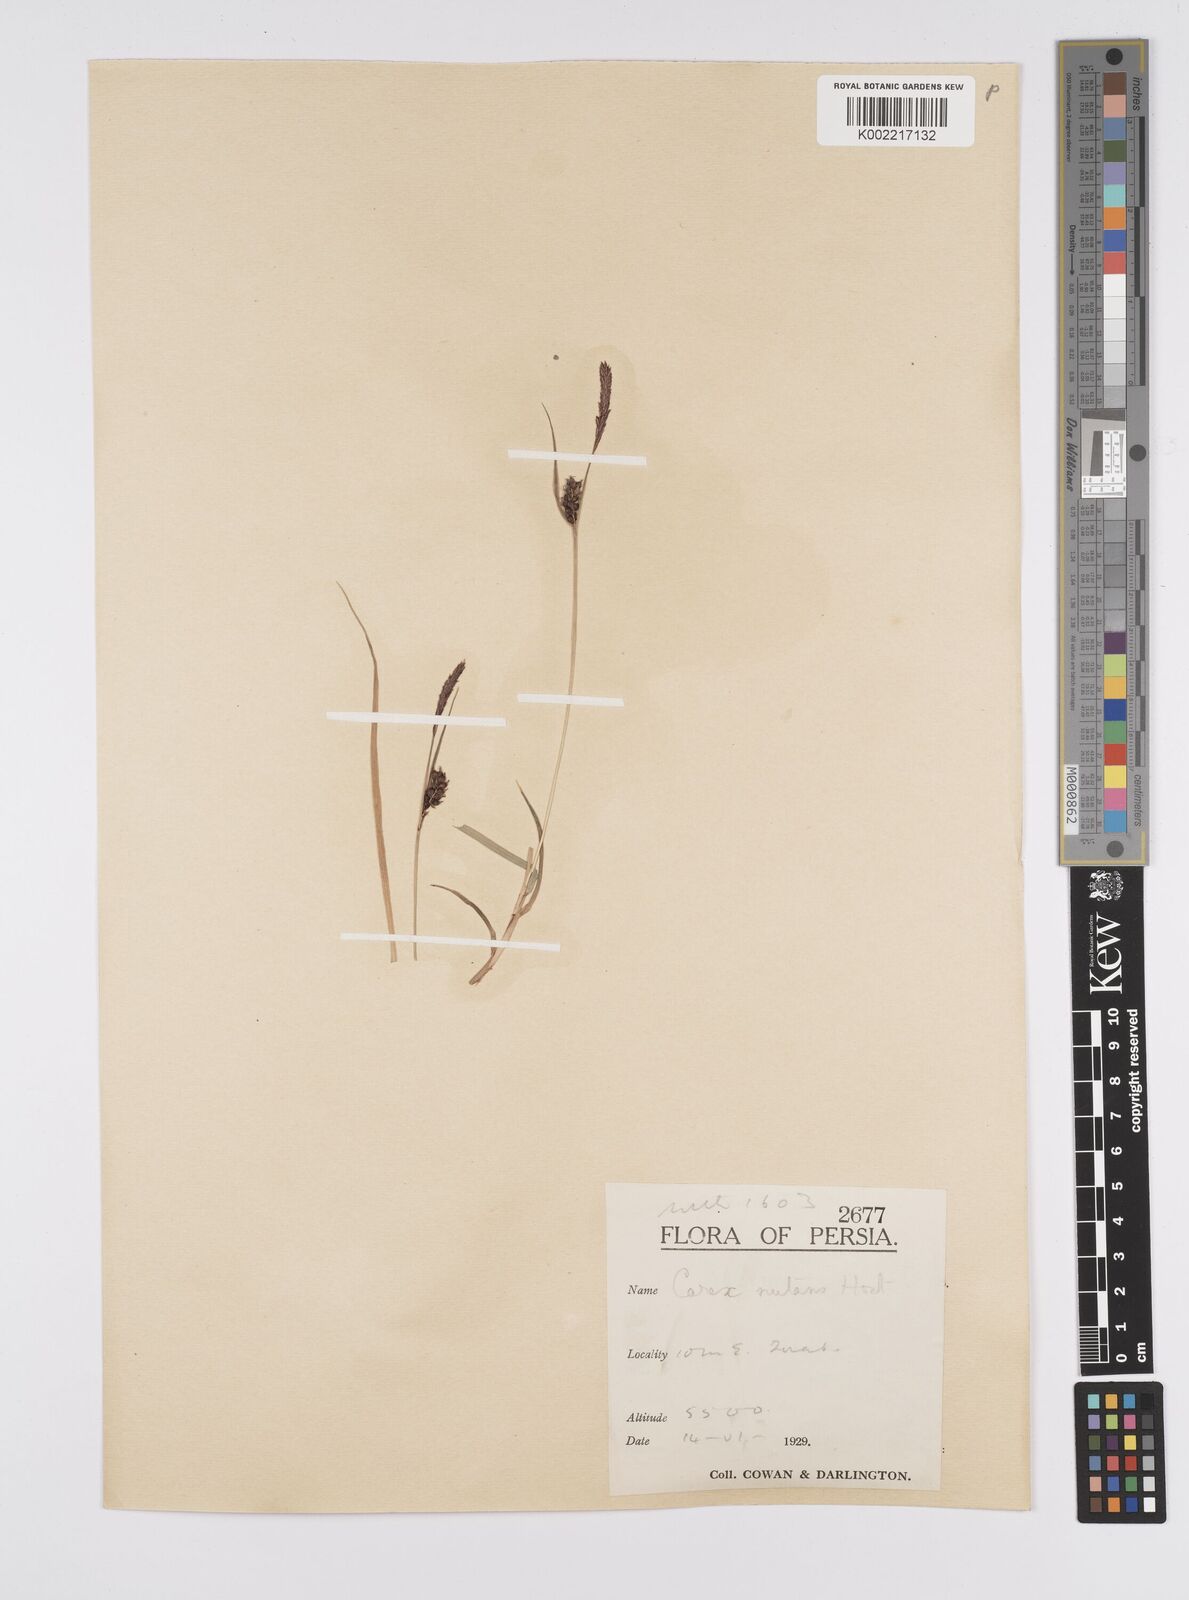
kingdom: Plantae
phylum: Tracheophyta
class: Liliopsida
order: Poales
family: Cyperaceae
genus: Carex
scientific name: Carex melanostachya
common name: Black-spiked sedge
